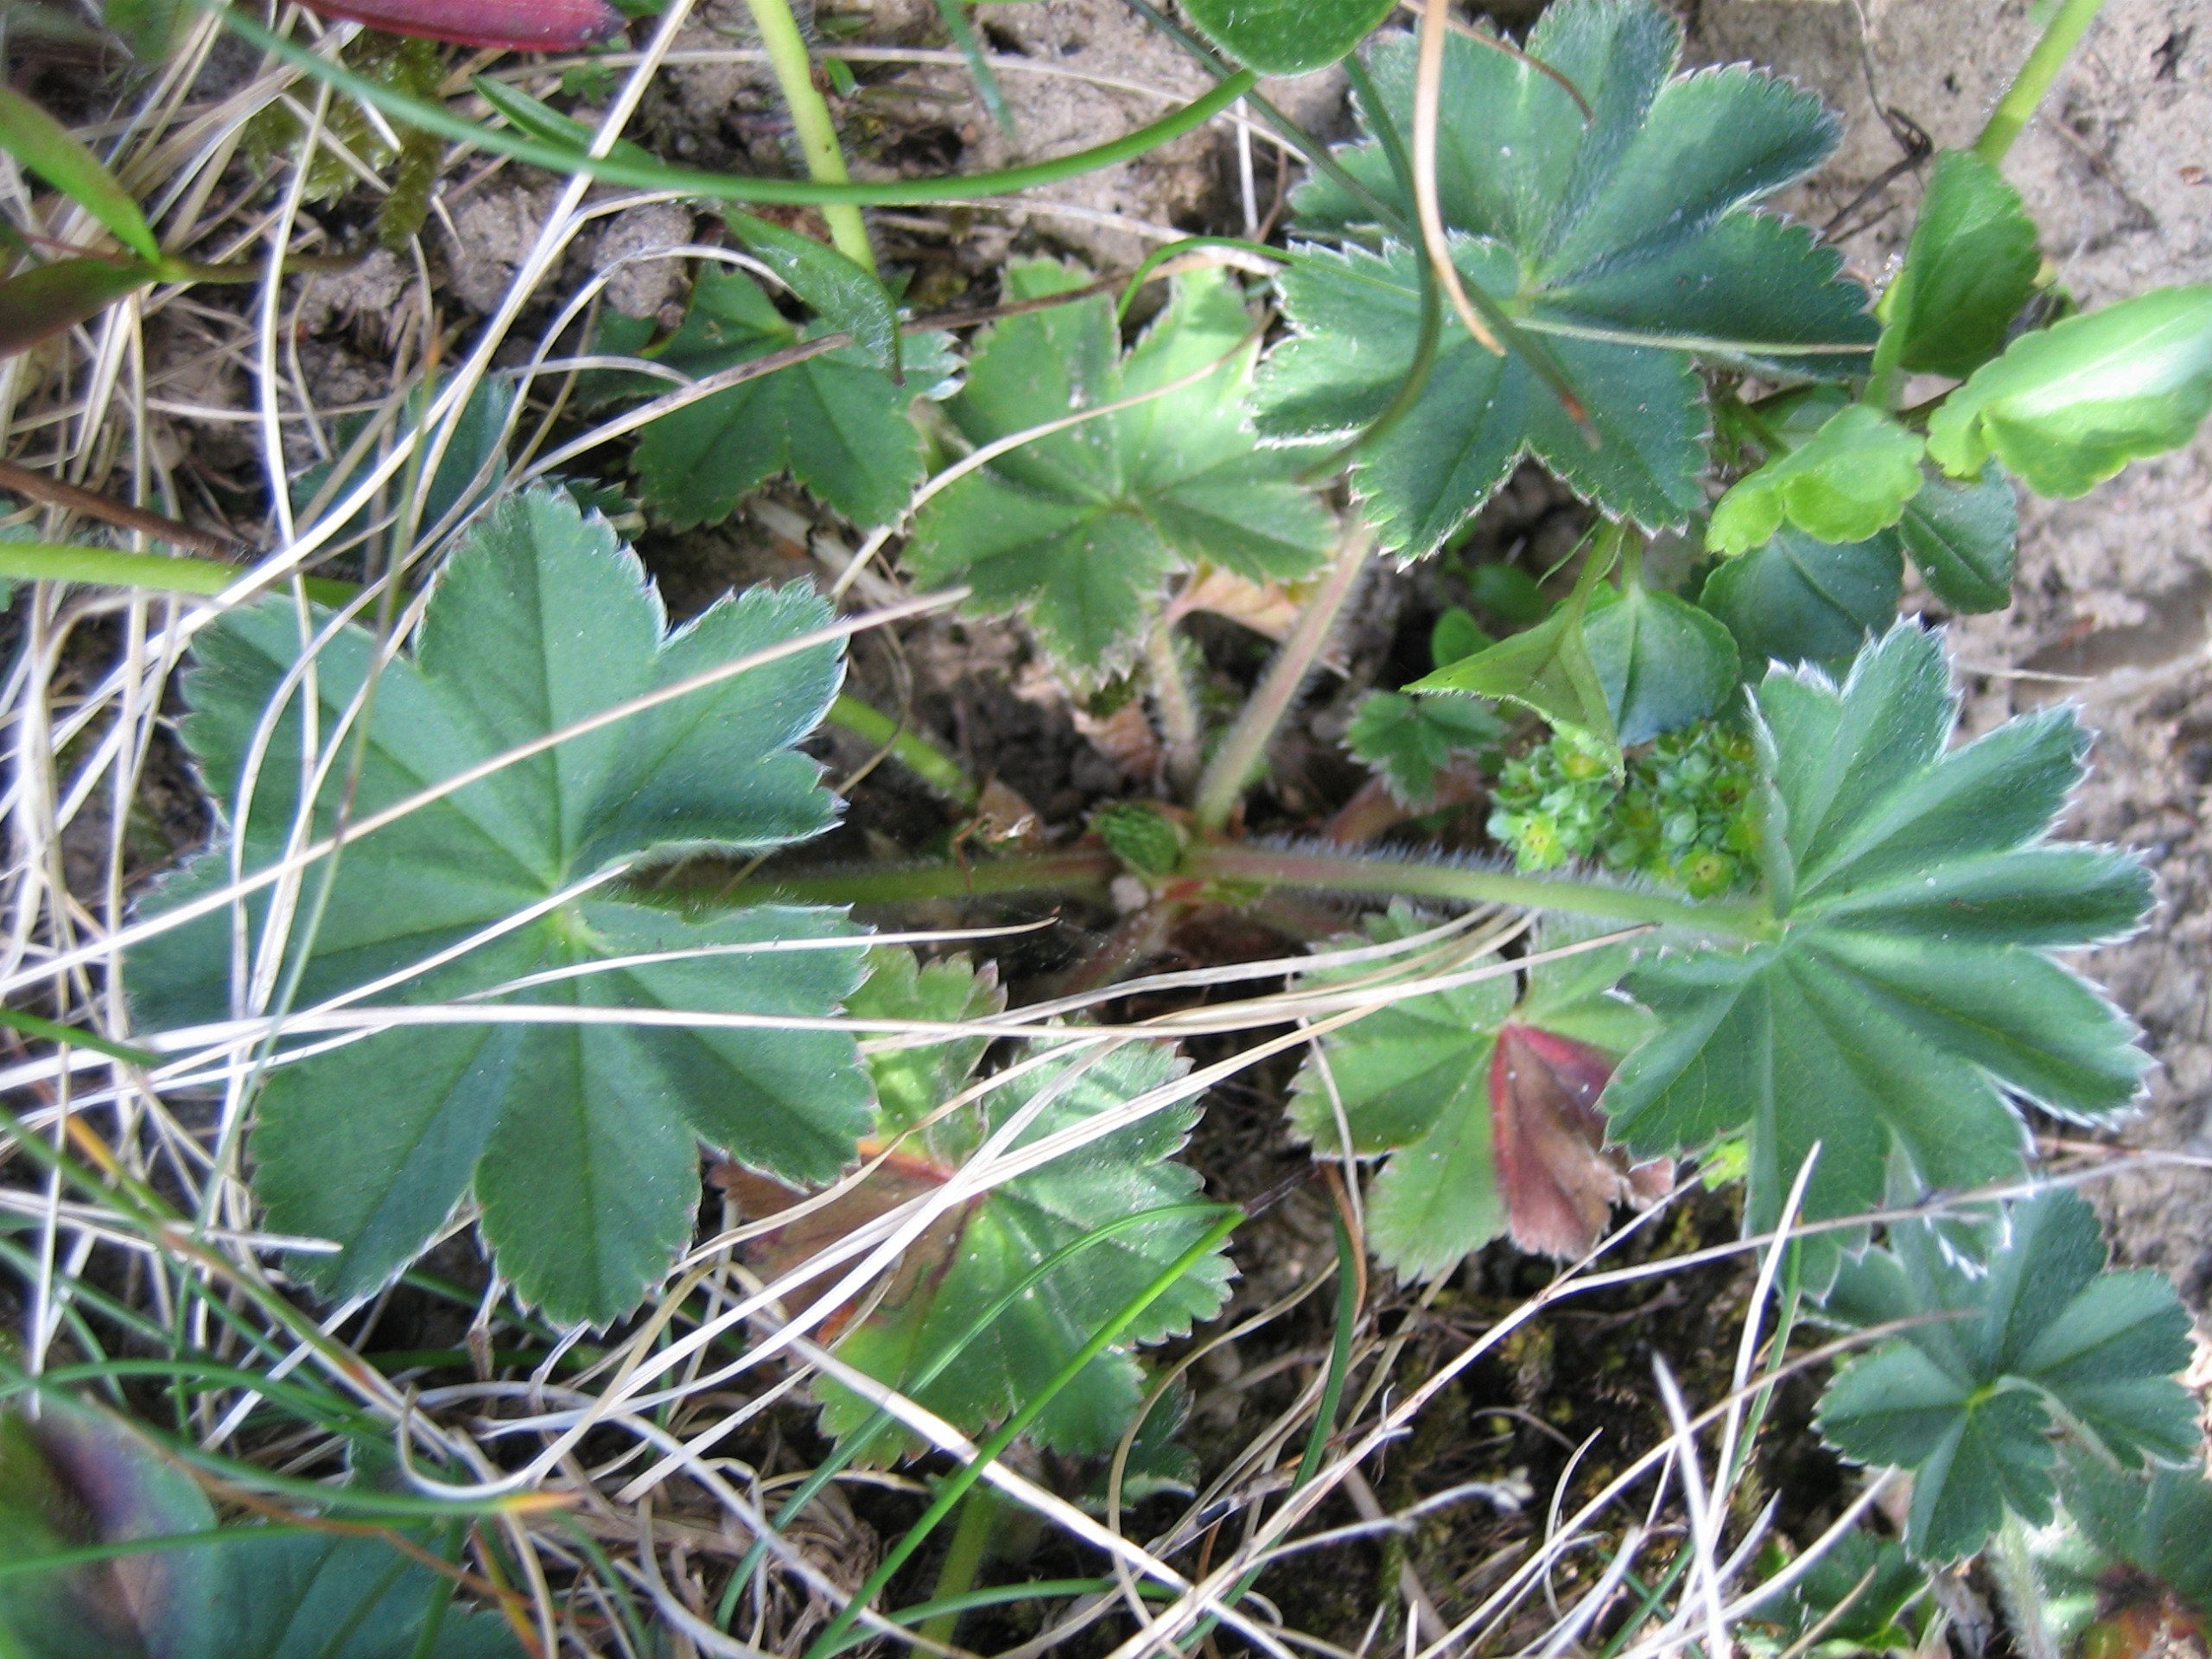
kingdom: Plantae
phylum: Tracheophyta
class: Magnoliopsida
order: Rosales
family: Rosaceae
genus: Alchemilla
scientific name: Alchemilla glaucescens
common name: Blågrøn løvefod
